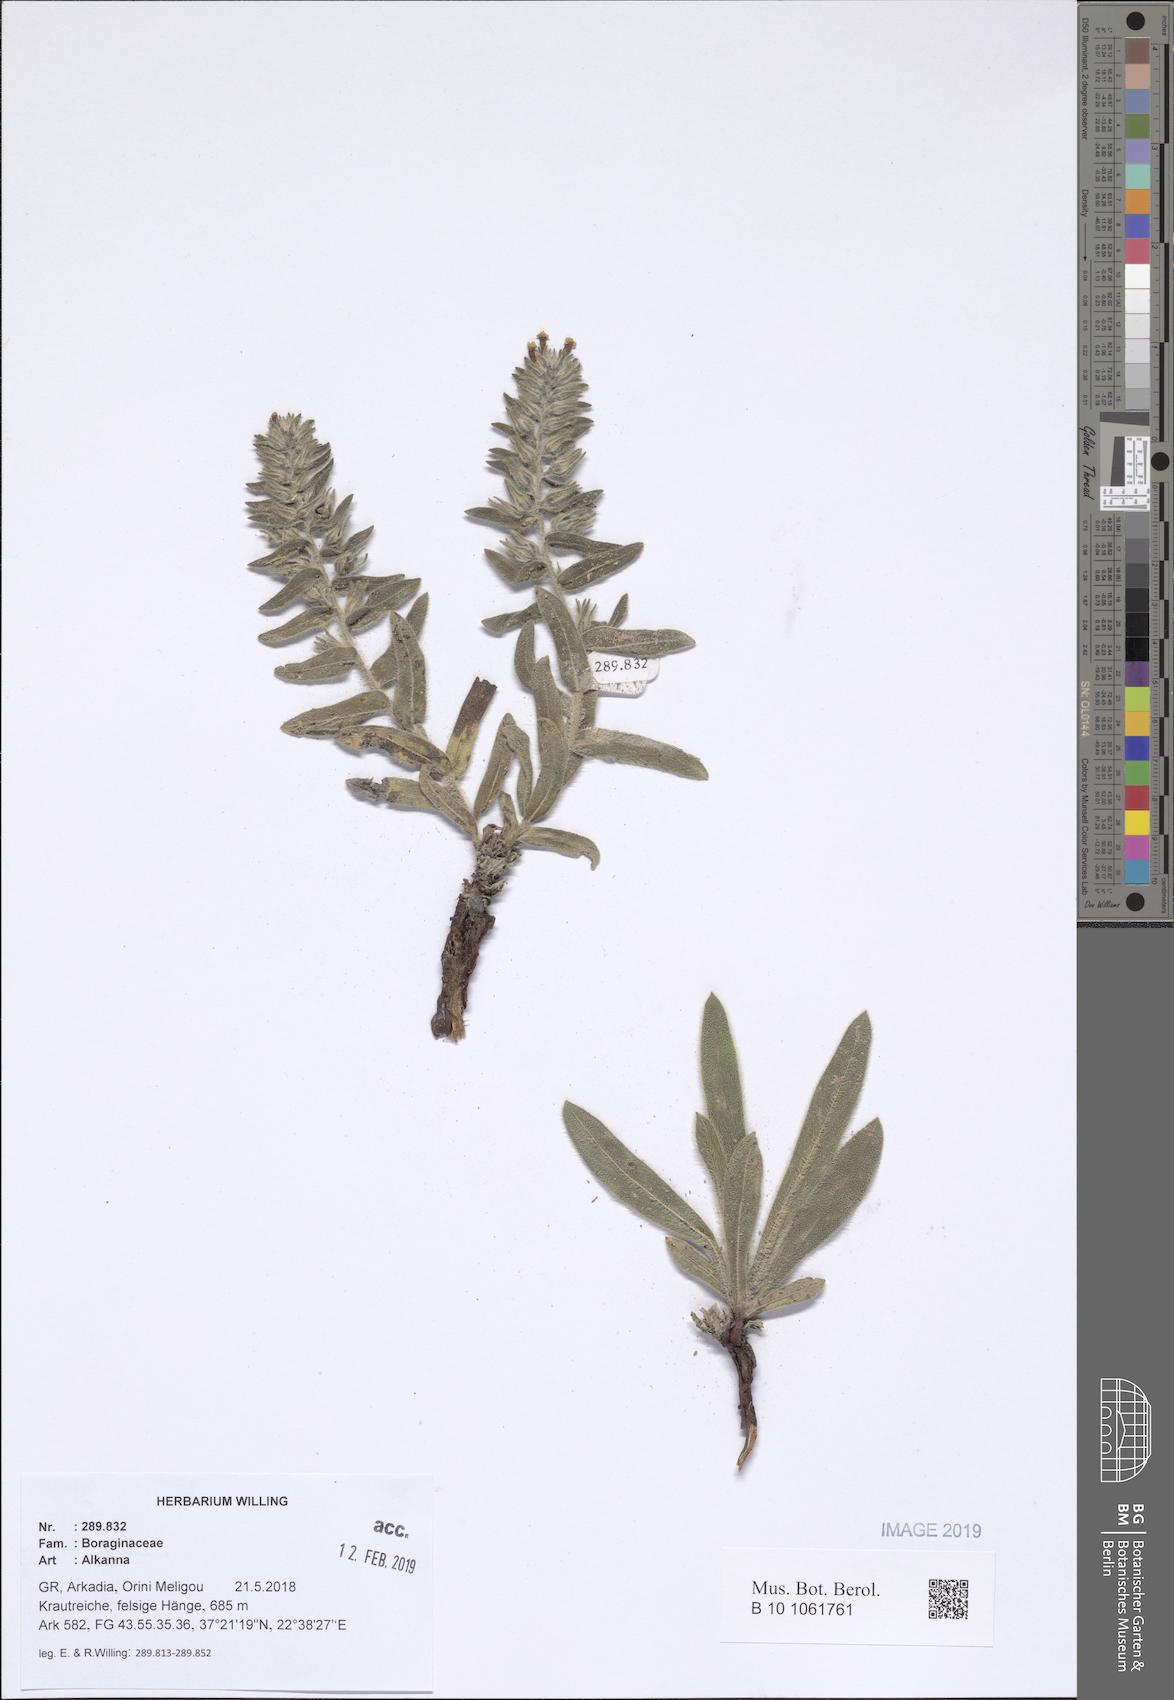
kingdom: Plantae
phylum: Tracheophyta
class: Magnoliopsida
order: Boraginales
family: Boraginaceae
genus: Alkanna
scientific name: Alkanna
